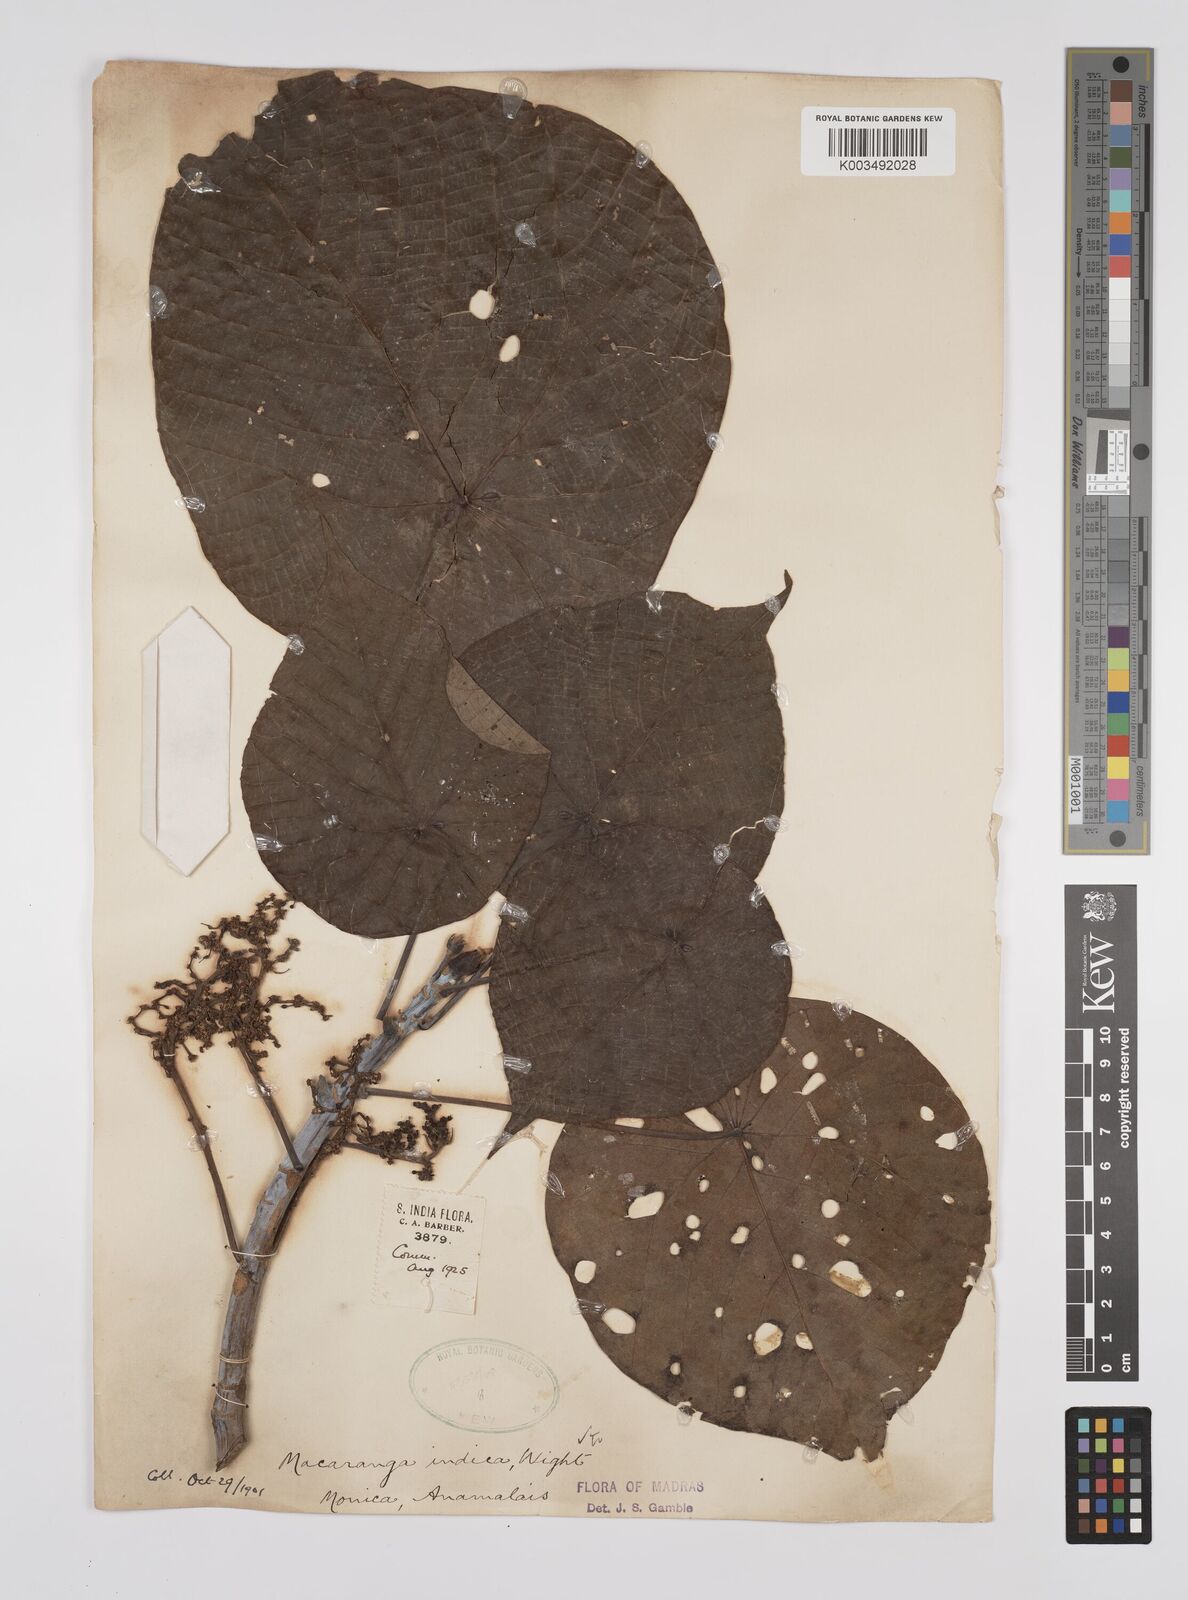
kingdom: Plantae
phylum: Tracheophyta
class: Magnoliopsida
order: Malpighiales
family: Euphorbiaceae
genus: Macaranga
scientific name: Macaranga indica
